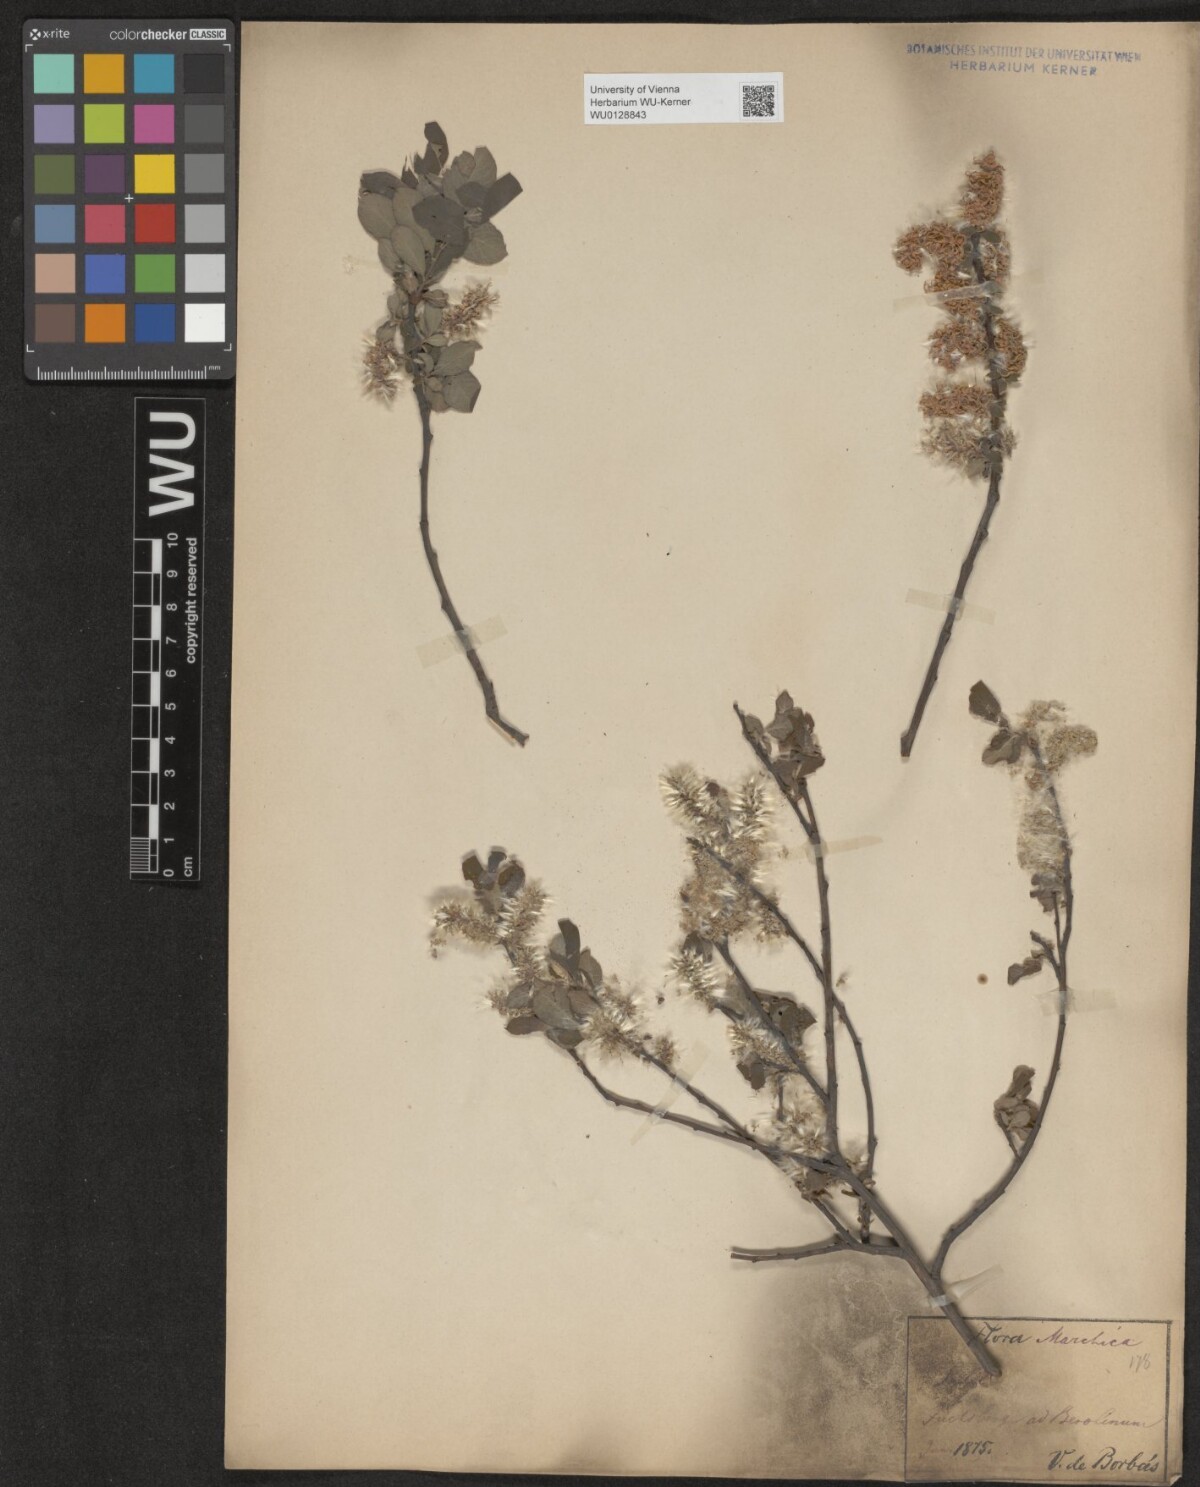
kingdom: Plantae
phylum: Tracheophyta
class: Magnoliopsida
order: Malpighiales
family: Salicaceae
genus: Salix
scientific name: Salix aurita
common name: Eared willow
